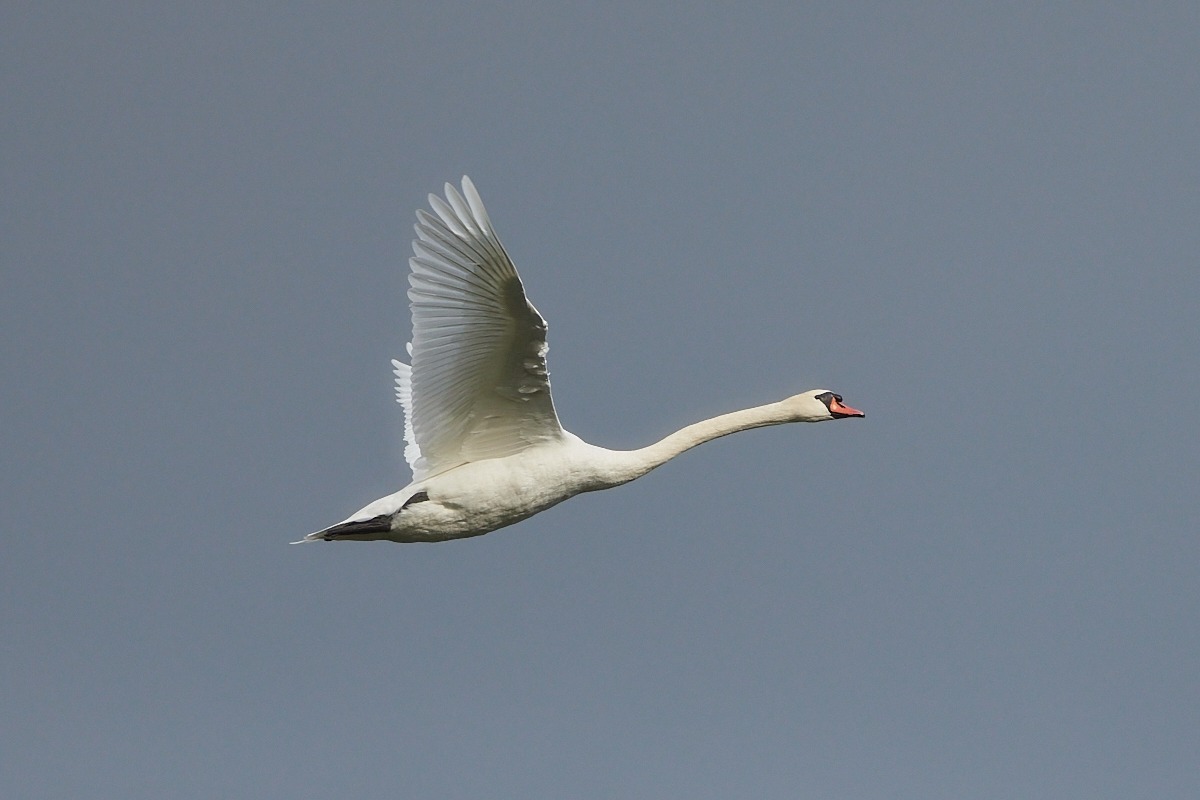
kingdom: Animalia
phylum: Chordata
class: Aves
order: Anseriformes
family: Anatidae
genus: Cygnus
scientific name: Cygnus olor
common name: Knopsvane
